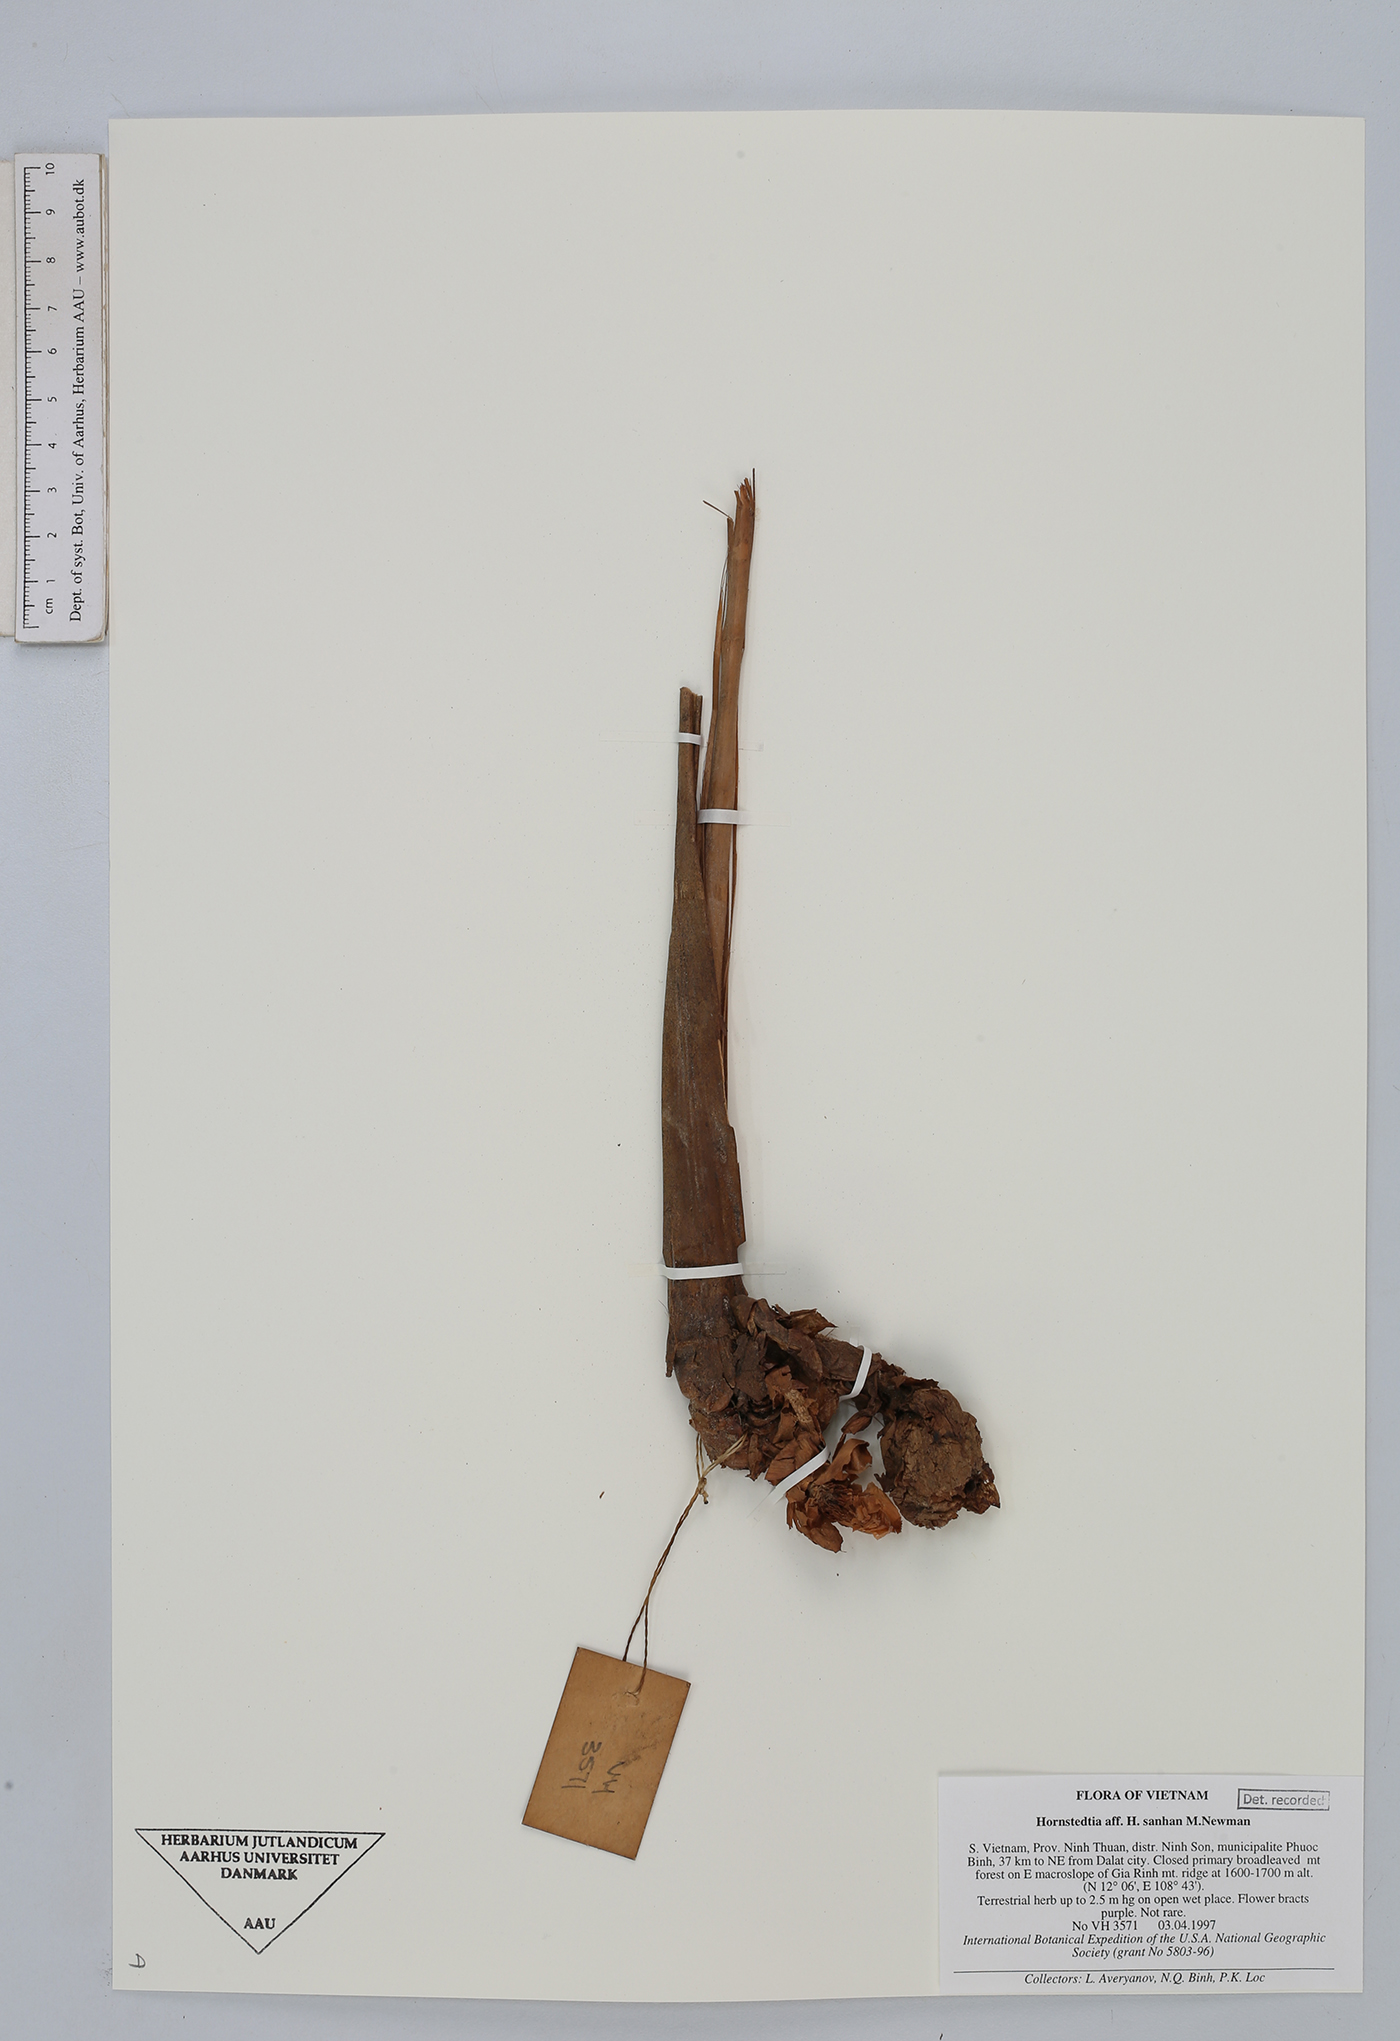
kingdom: Plantae
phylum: Tracheophyta
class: Liliopsida
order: Zingiberales
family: Zingiberaceae
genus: Hornstedtia
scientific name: Hornstedtia sanhan
